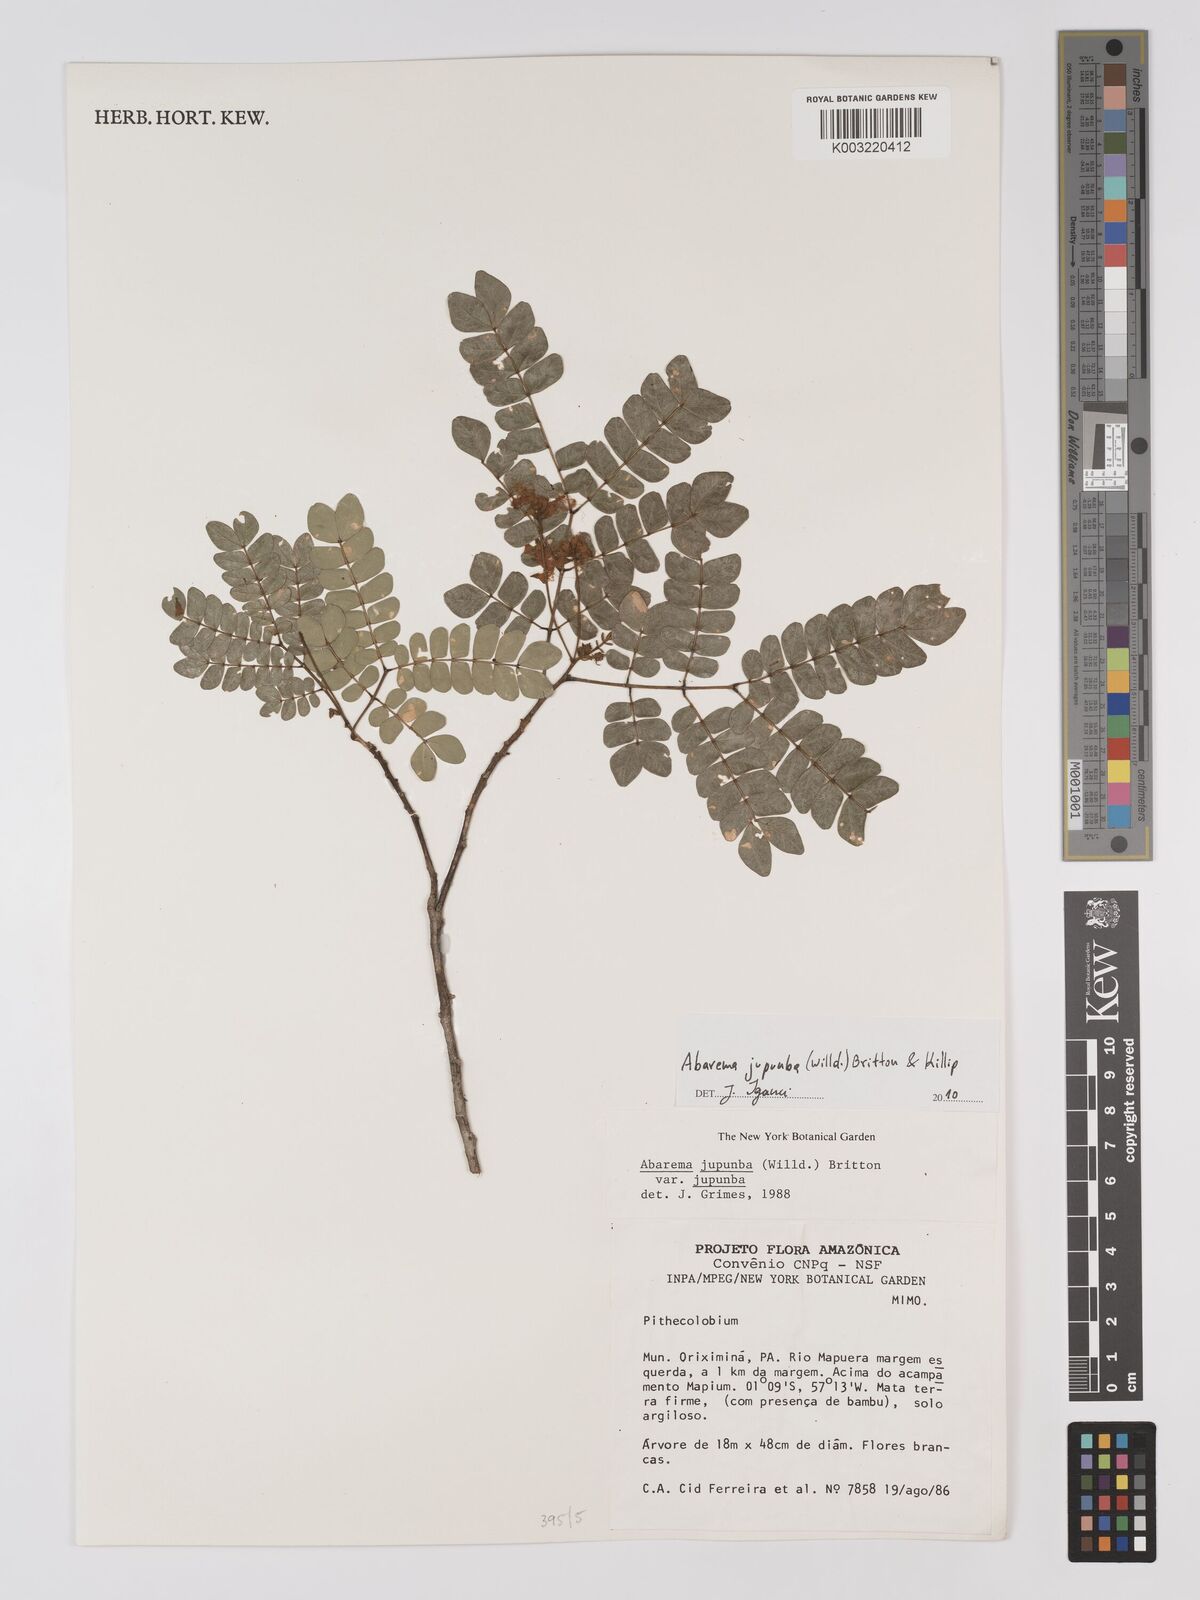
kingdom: Plantae
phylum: Tracheophyta
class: Magnoliopsida
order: Fabales
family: Fabaceae
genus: Jupunba
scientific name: Jupunba trapezifolia
